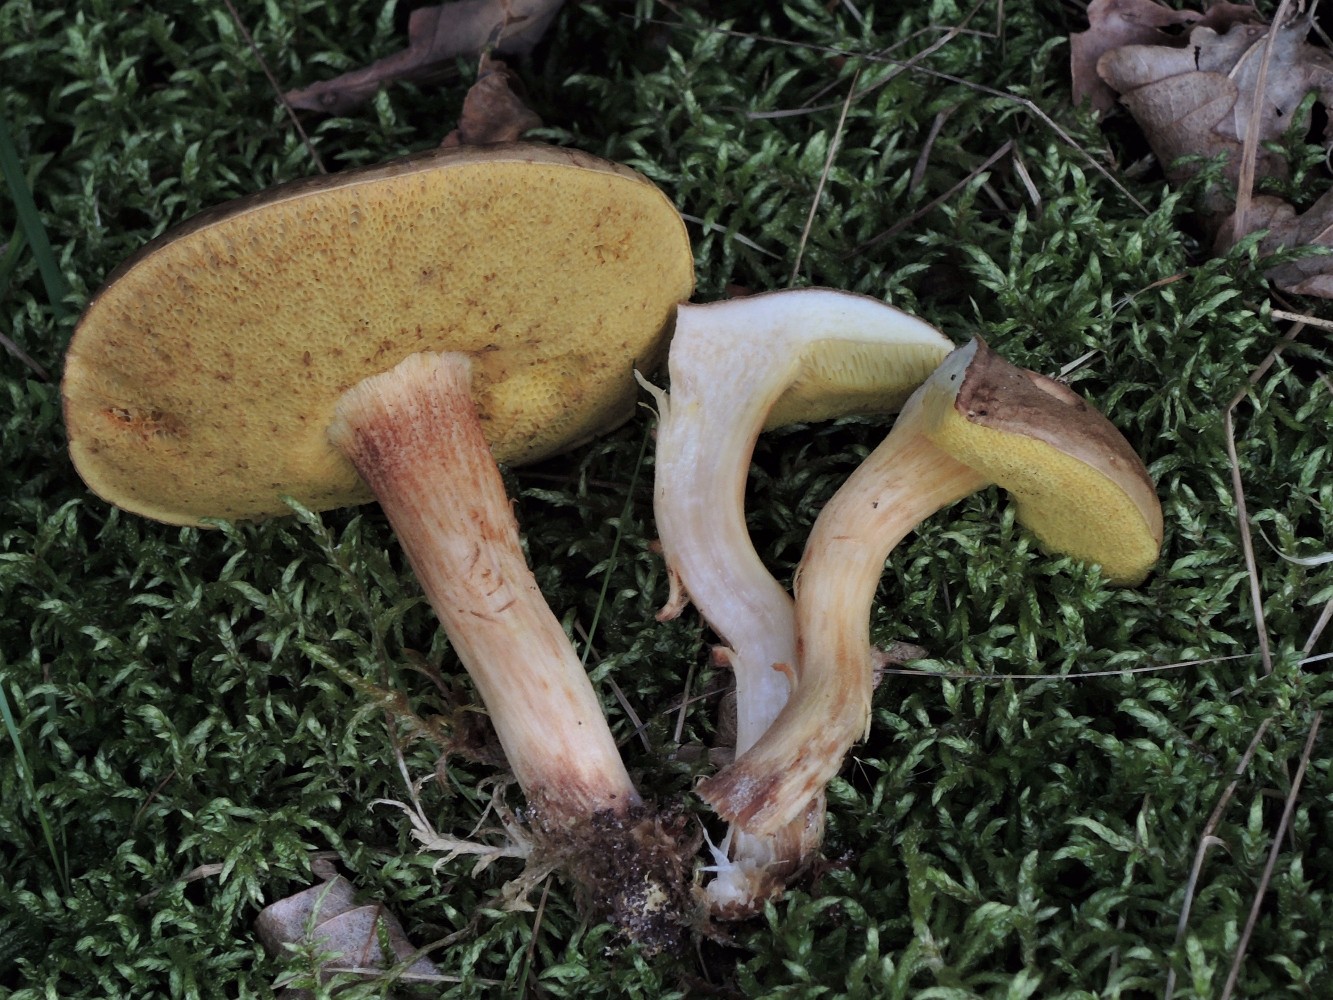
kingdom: Fungi
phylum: Basidiomycota
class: Agaricomycetes
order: Boletales
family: Boletaceae
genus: Xerocomus
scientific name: Xerocomus ferrugineus
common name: vaskeskinds-rørhat
